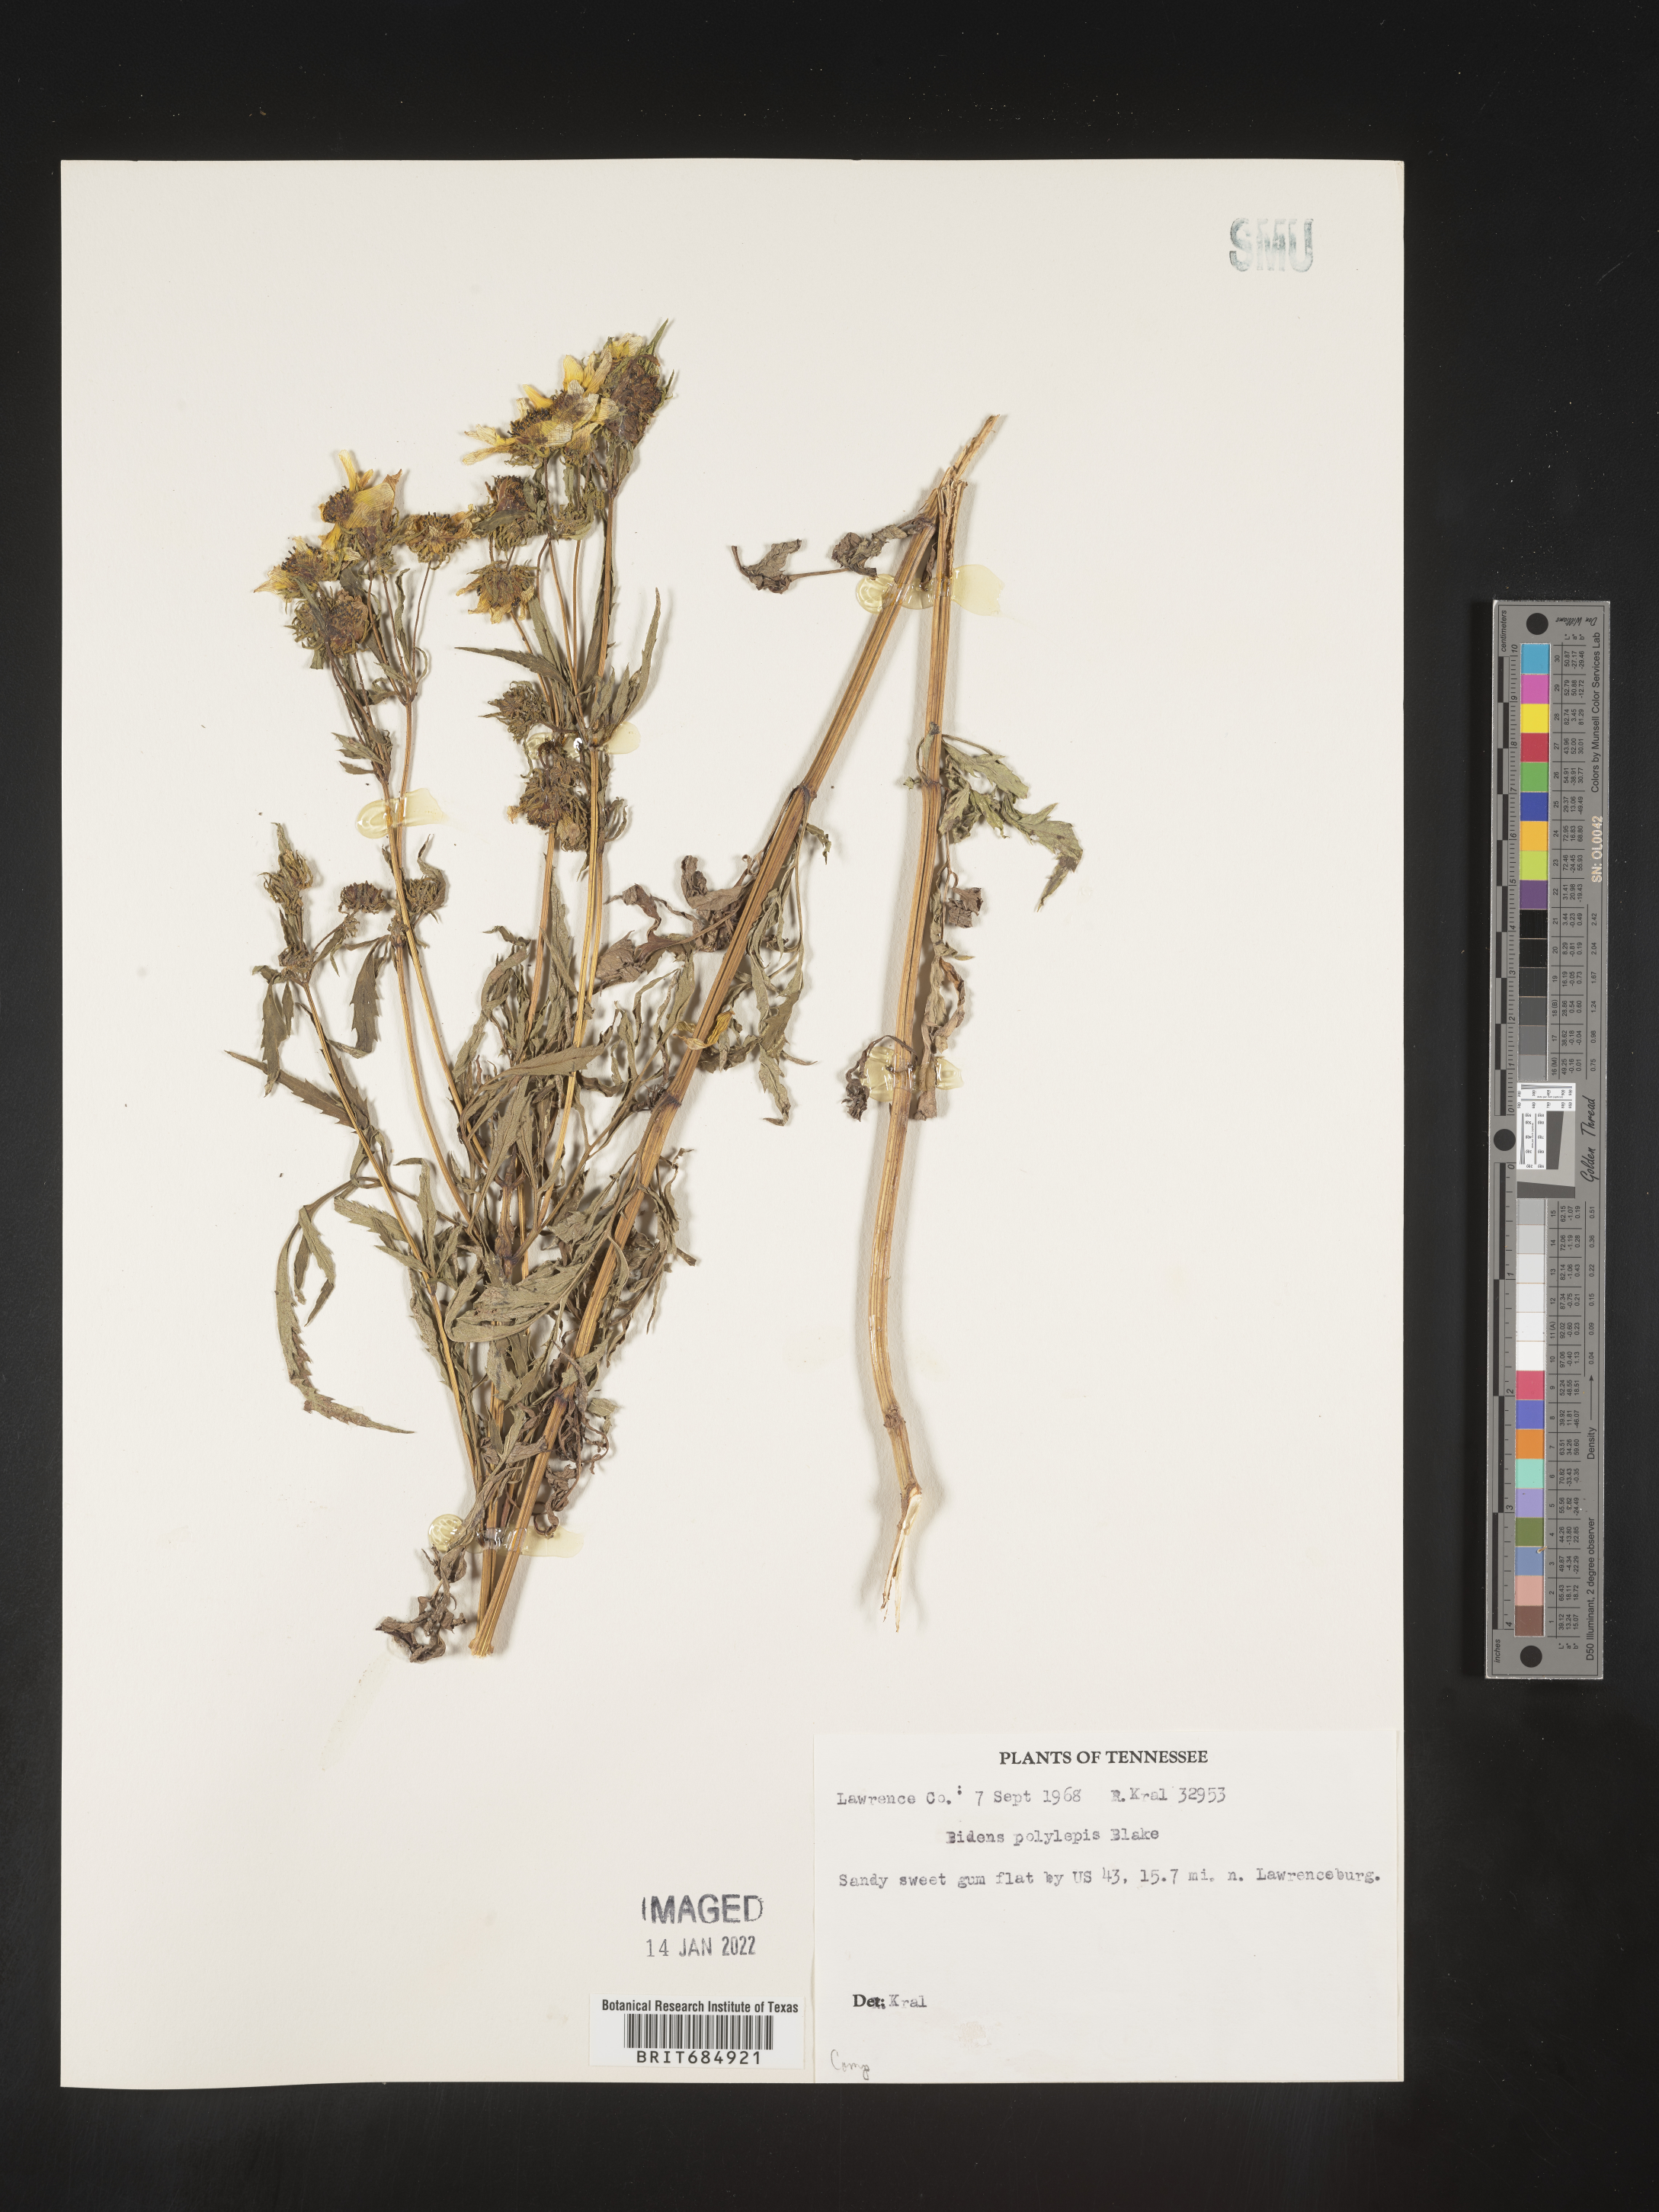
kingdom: Plantae
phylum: Tracheophyta
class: Magnoliopsida
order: Asterales
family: Asteraceae
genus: Bidens
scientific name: Bidens polylepis
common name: Awnless beggarticks
